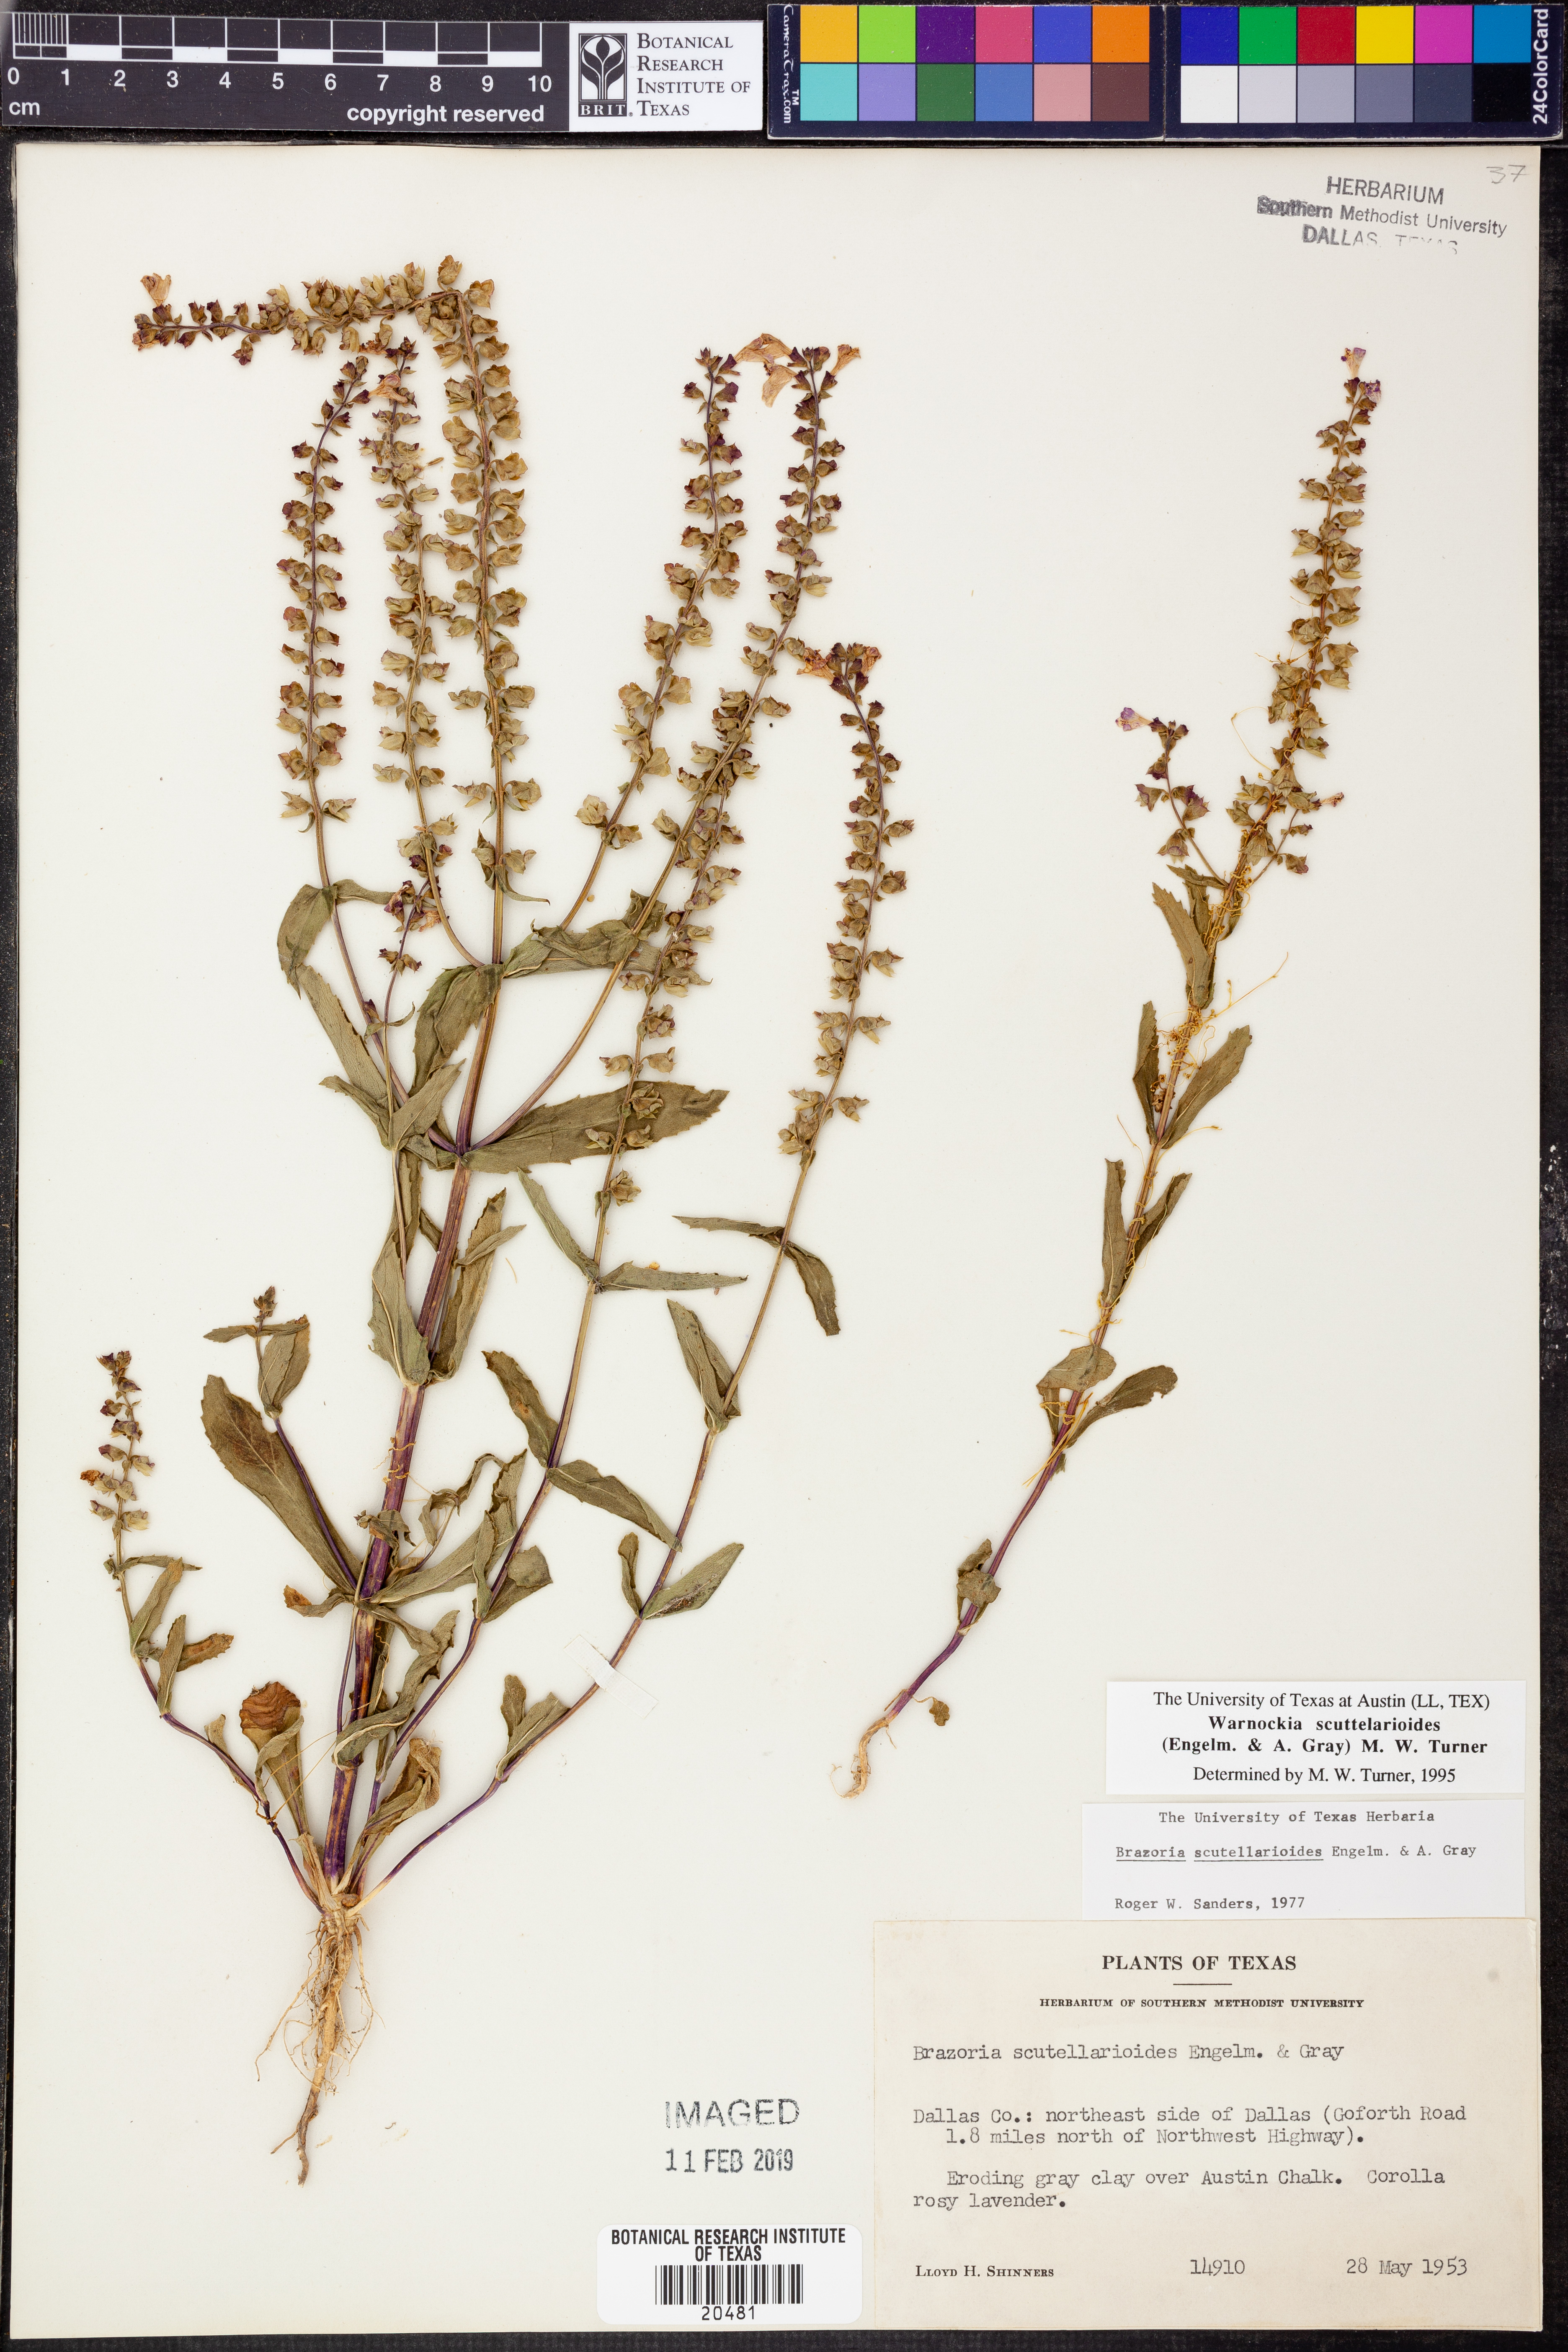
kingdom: Plantae
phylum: Tracheophyta
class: Magnoliopsida
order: Lamiales
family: Lamiaceae
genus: Warnockia
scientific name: Warnockia scutellarioides
